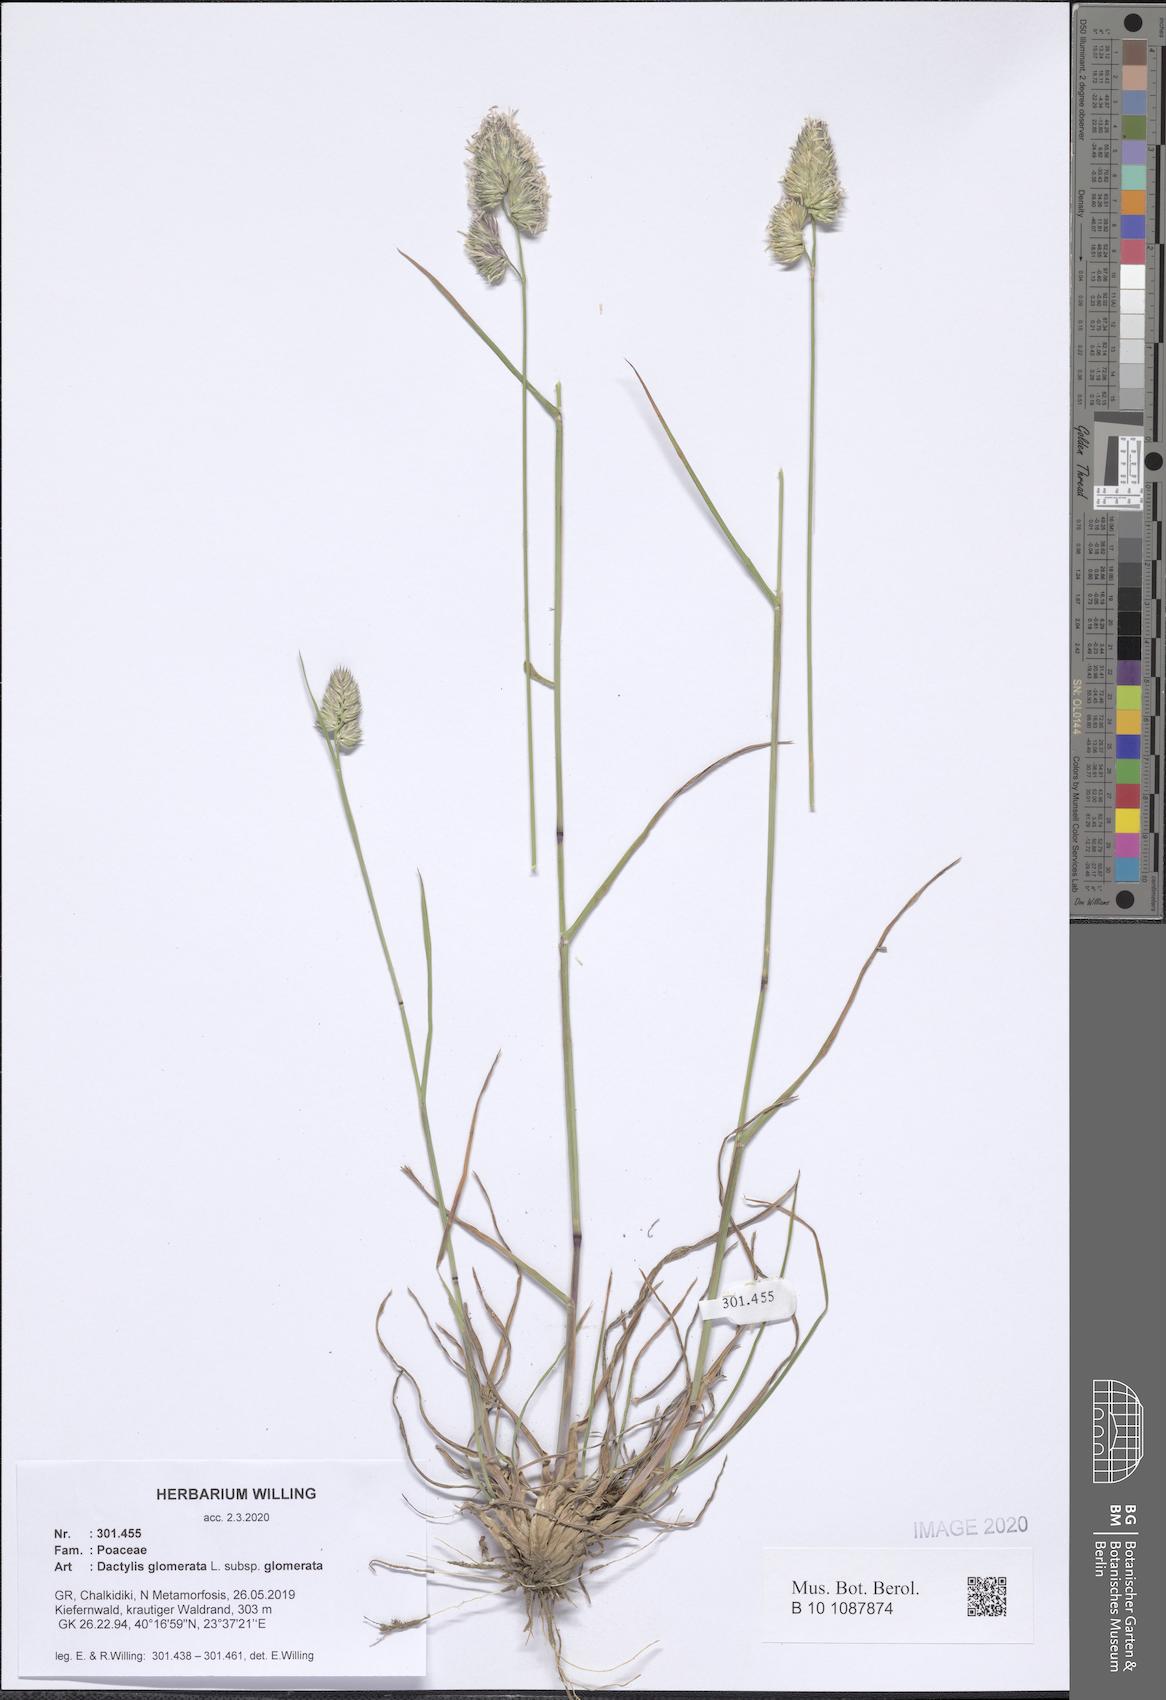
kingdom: Plantae
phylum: Tracheophyta
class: Liliopsida
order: Poales
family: Poaceae
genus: Dactylis
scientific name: Dactylis glomerata
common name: Orchardgrass
